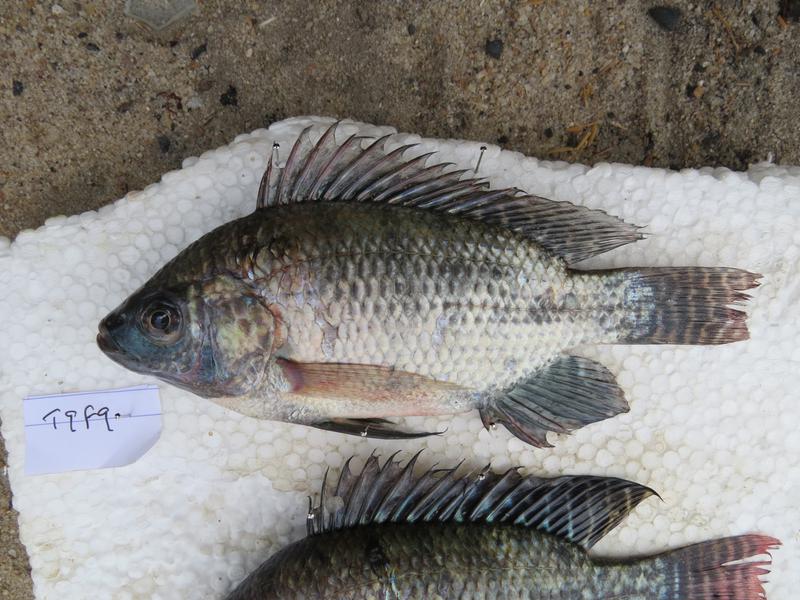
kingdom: Animalia
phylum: Chordata
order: Perciformes
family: Cichlidae
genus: Oreochromis
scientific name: Oreochromis niloticus
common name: Nile tilapia
